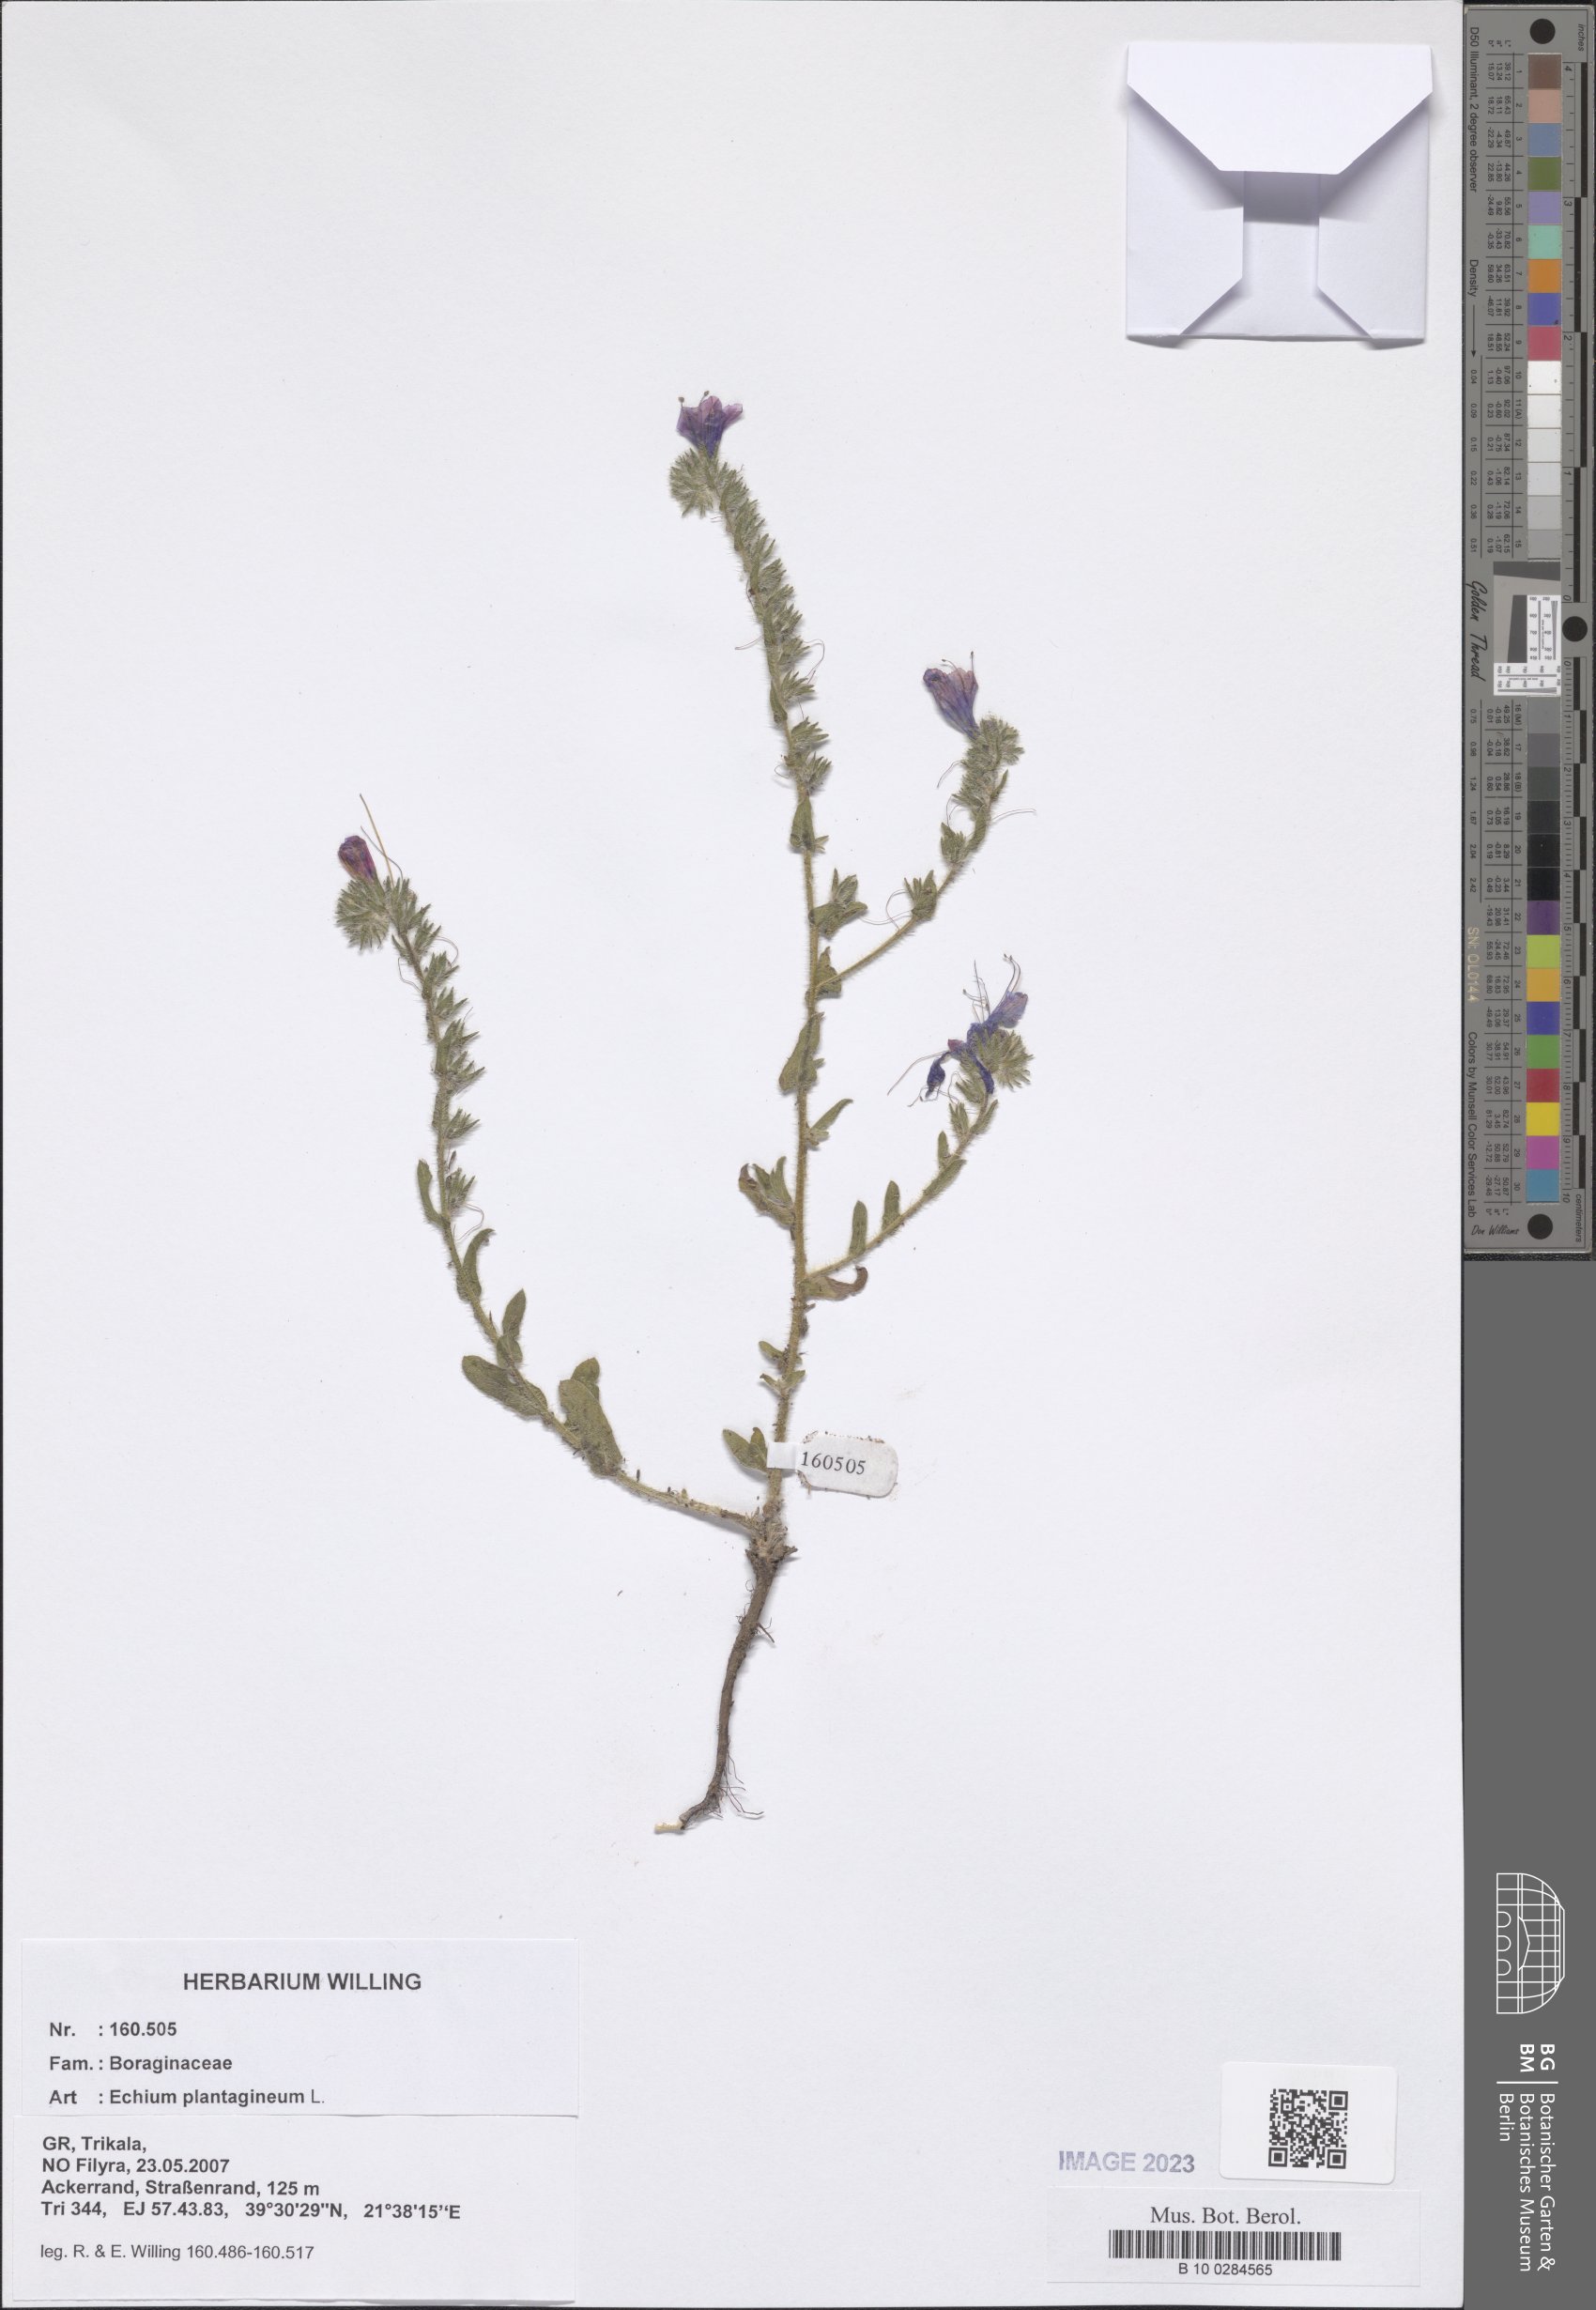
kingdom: Plantae
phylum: Tracheophyta
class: Magnoliopsida
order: Boraginales
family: Boraginaceae
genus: Echium
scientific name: Echium plantagineum
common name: Purple viper's-bugloss
